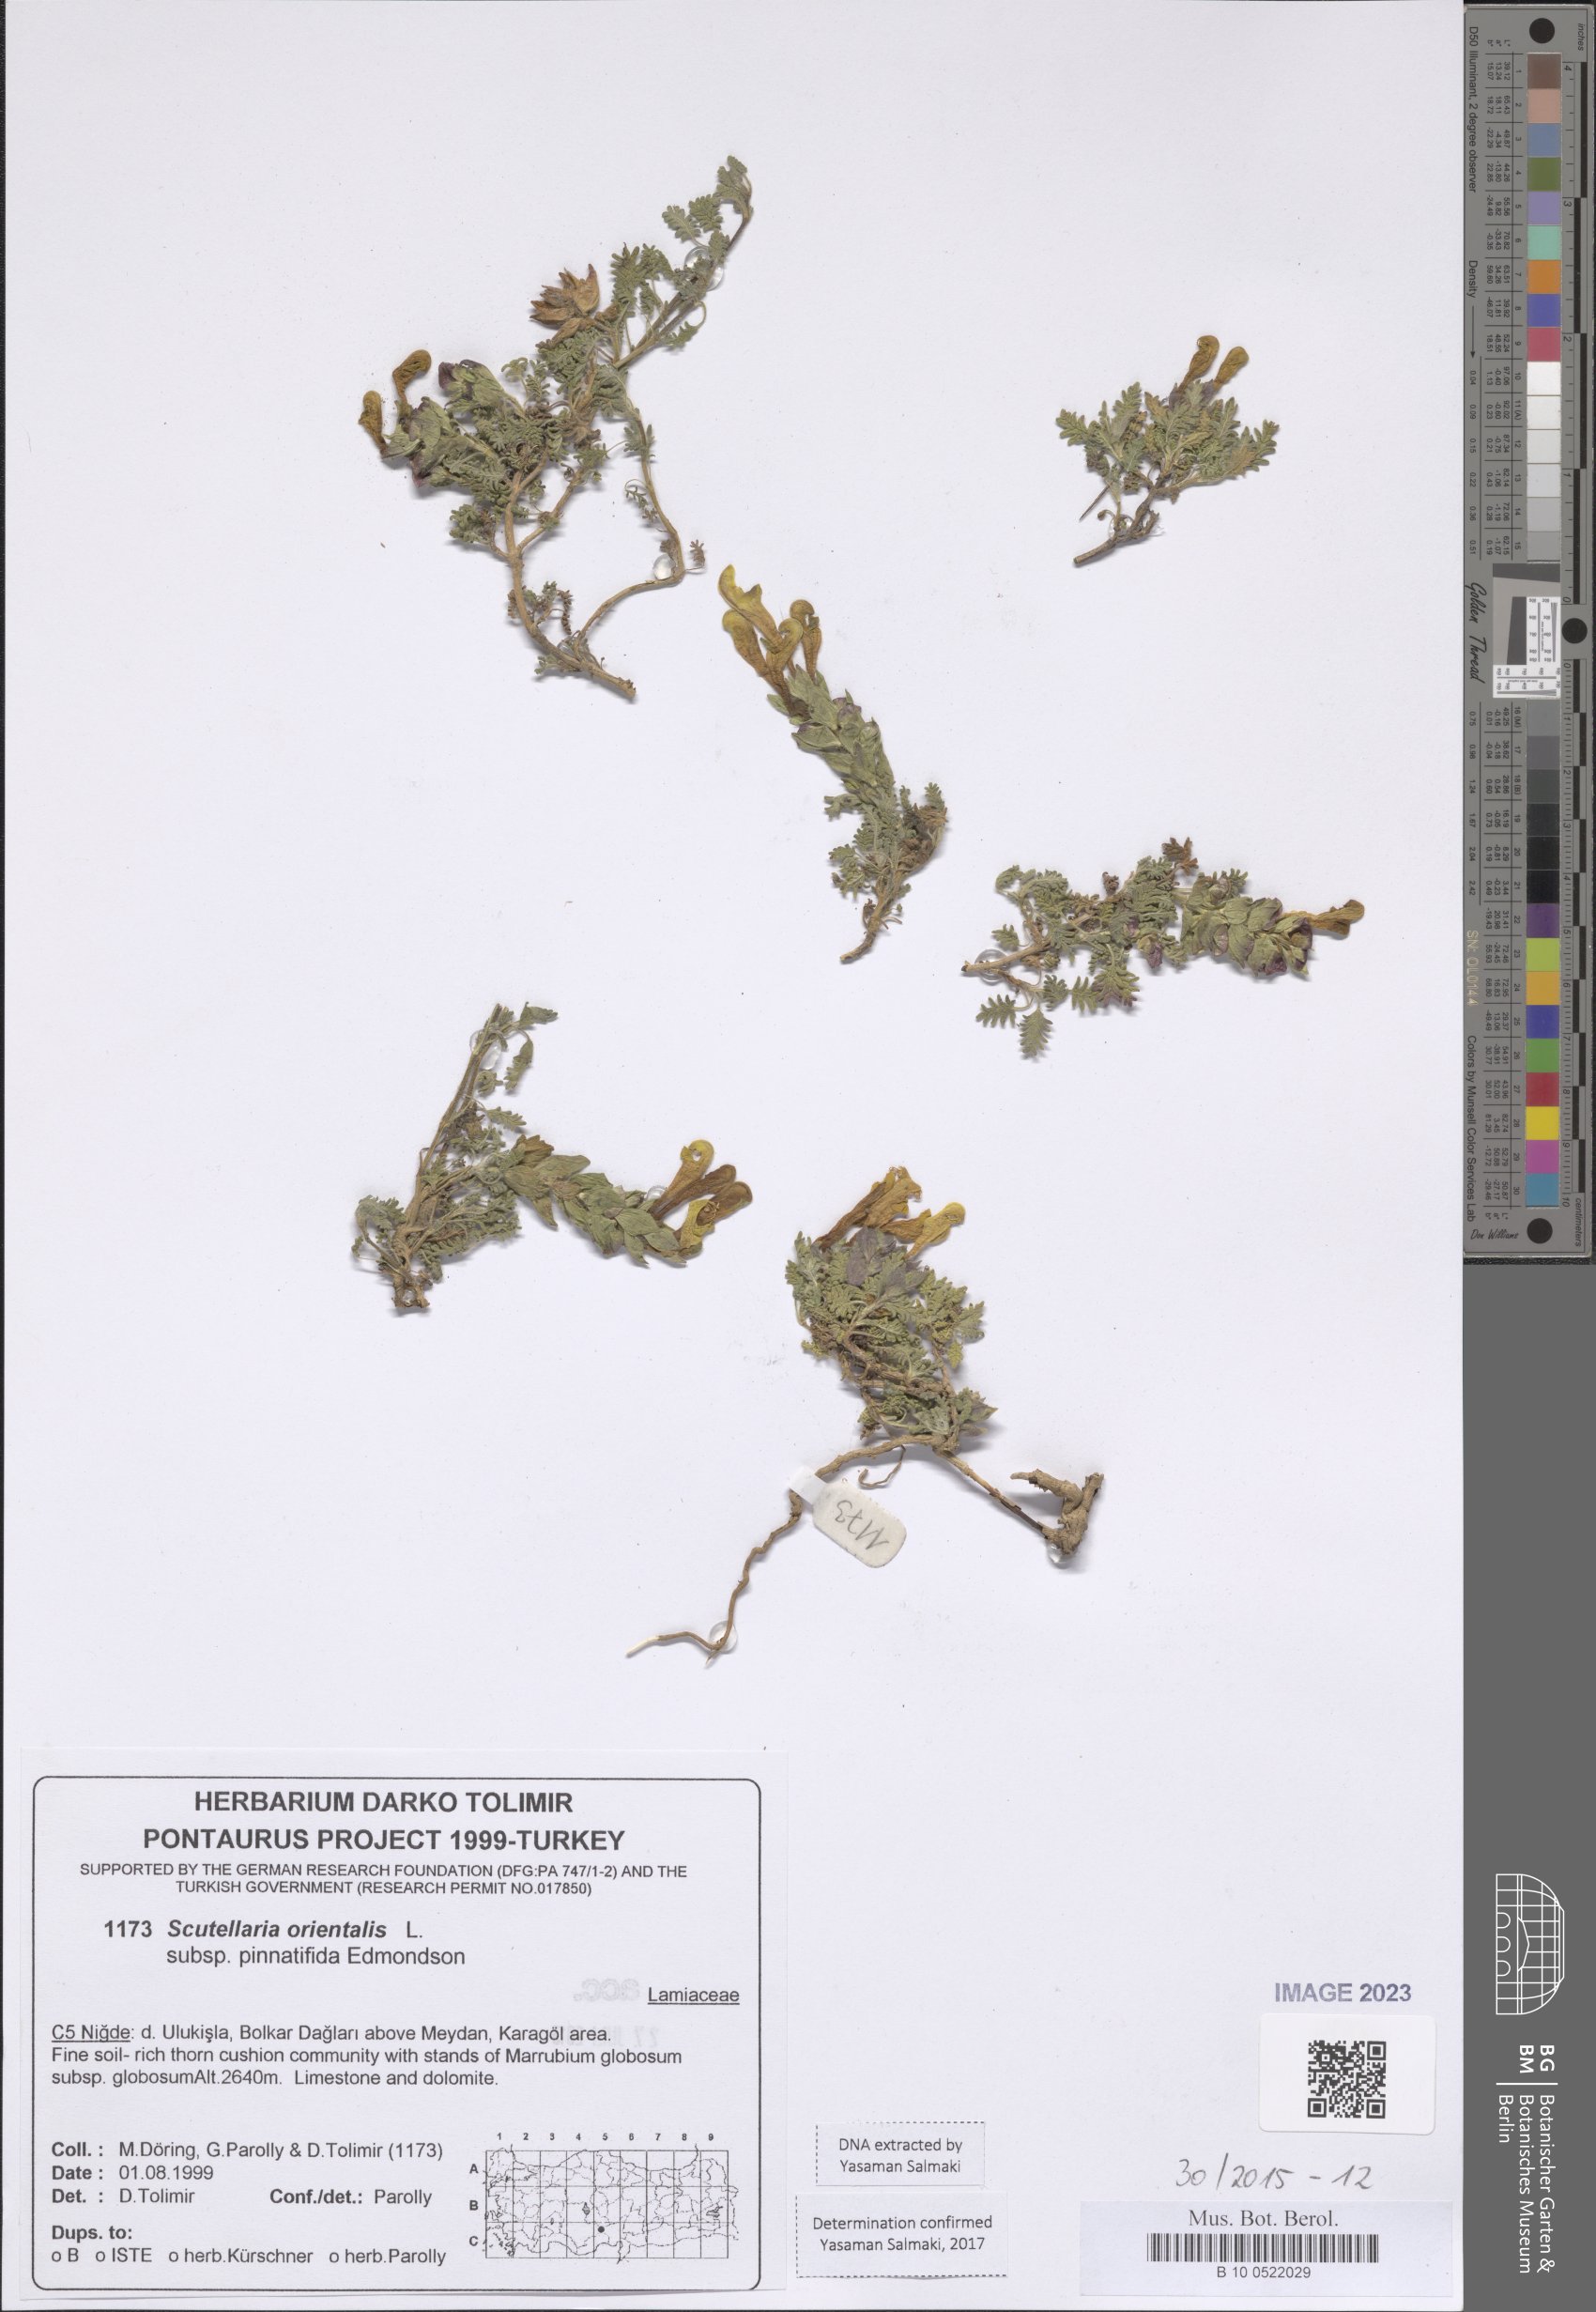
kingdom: Plantae
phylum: Tracheophyta
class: Magnoliopsida
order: Lamiales
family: Lamiaceae
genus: Scutellaria
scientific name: Scutellaria orientalis
